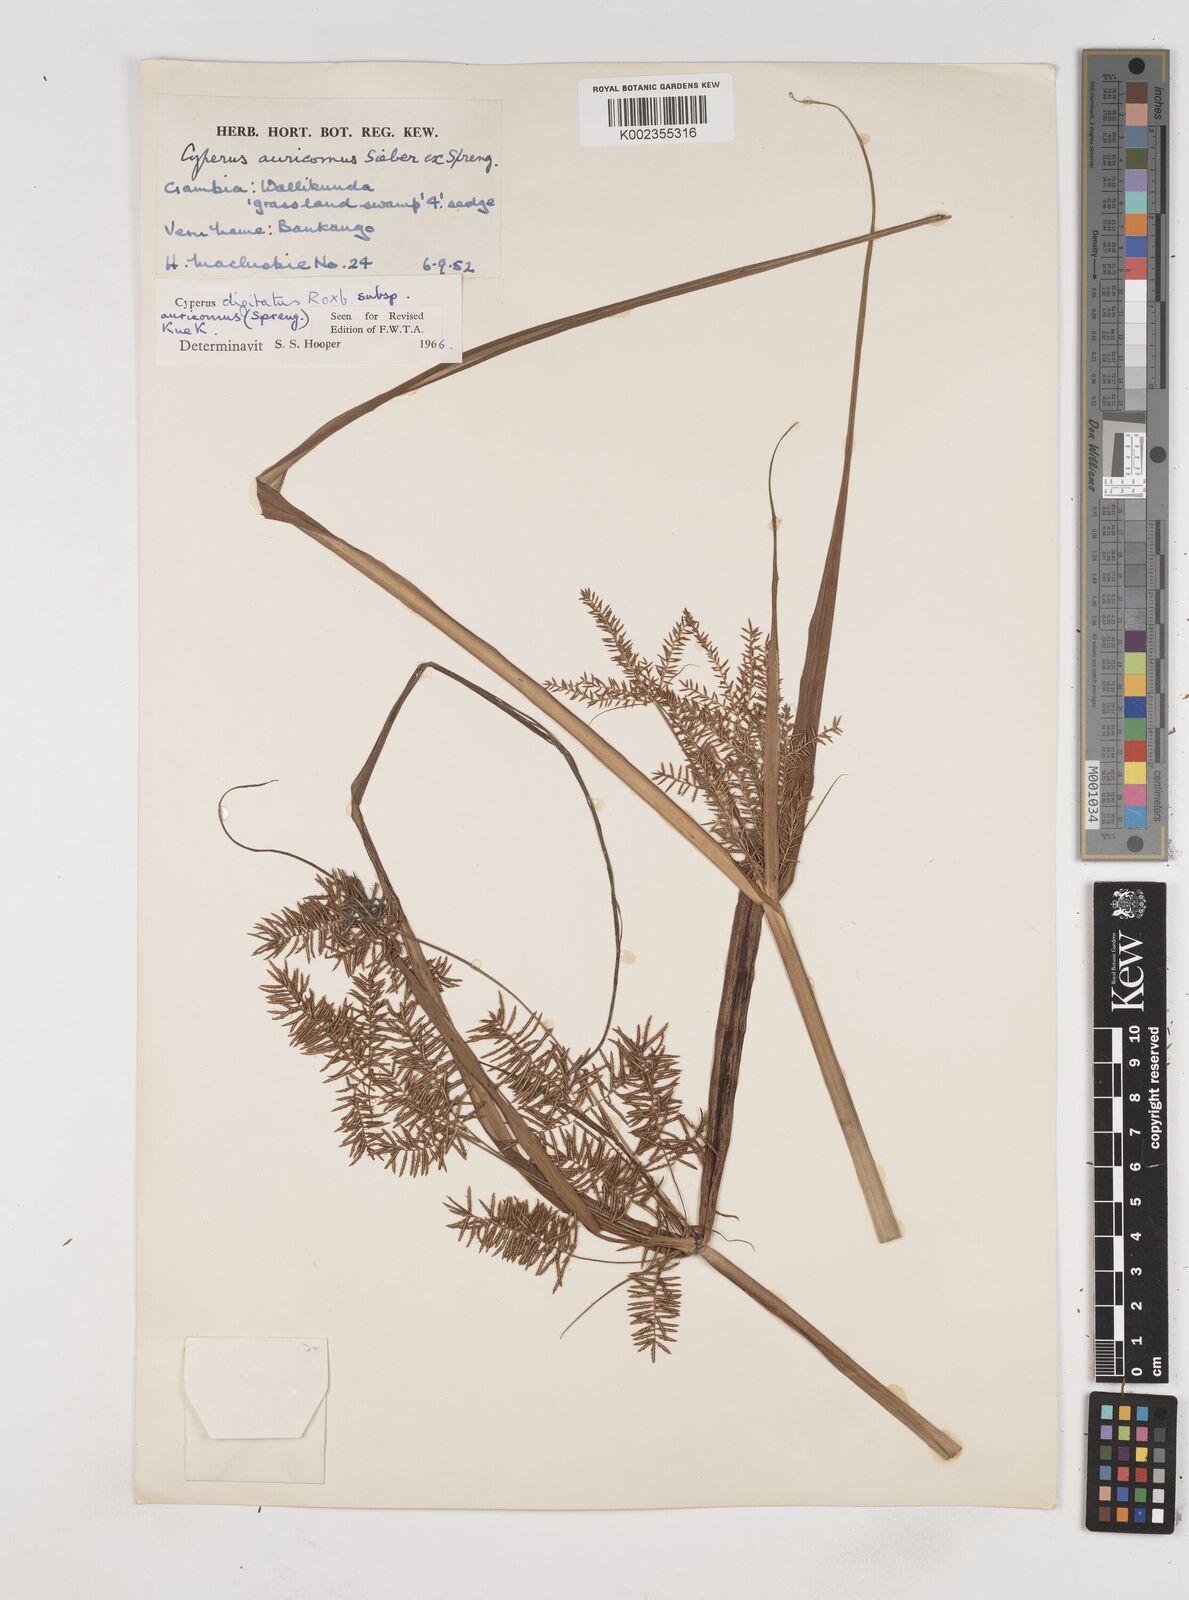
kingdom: Plantae
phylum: Tracheophyta
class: Liliopsida
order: Poales
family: Cyperaceae
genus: Cyperus
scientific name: Cyperus digitatus
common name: Finger flatsedge
